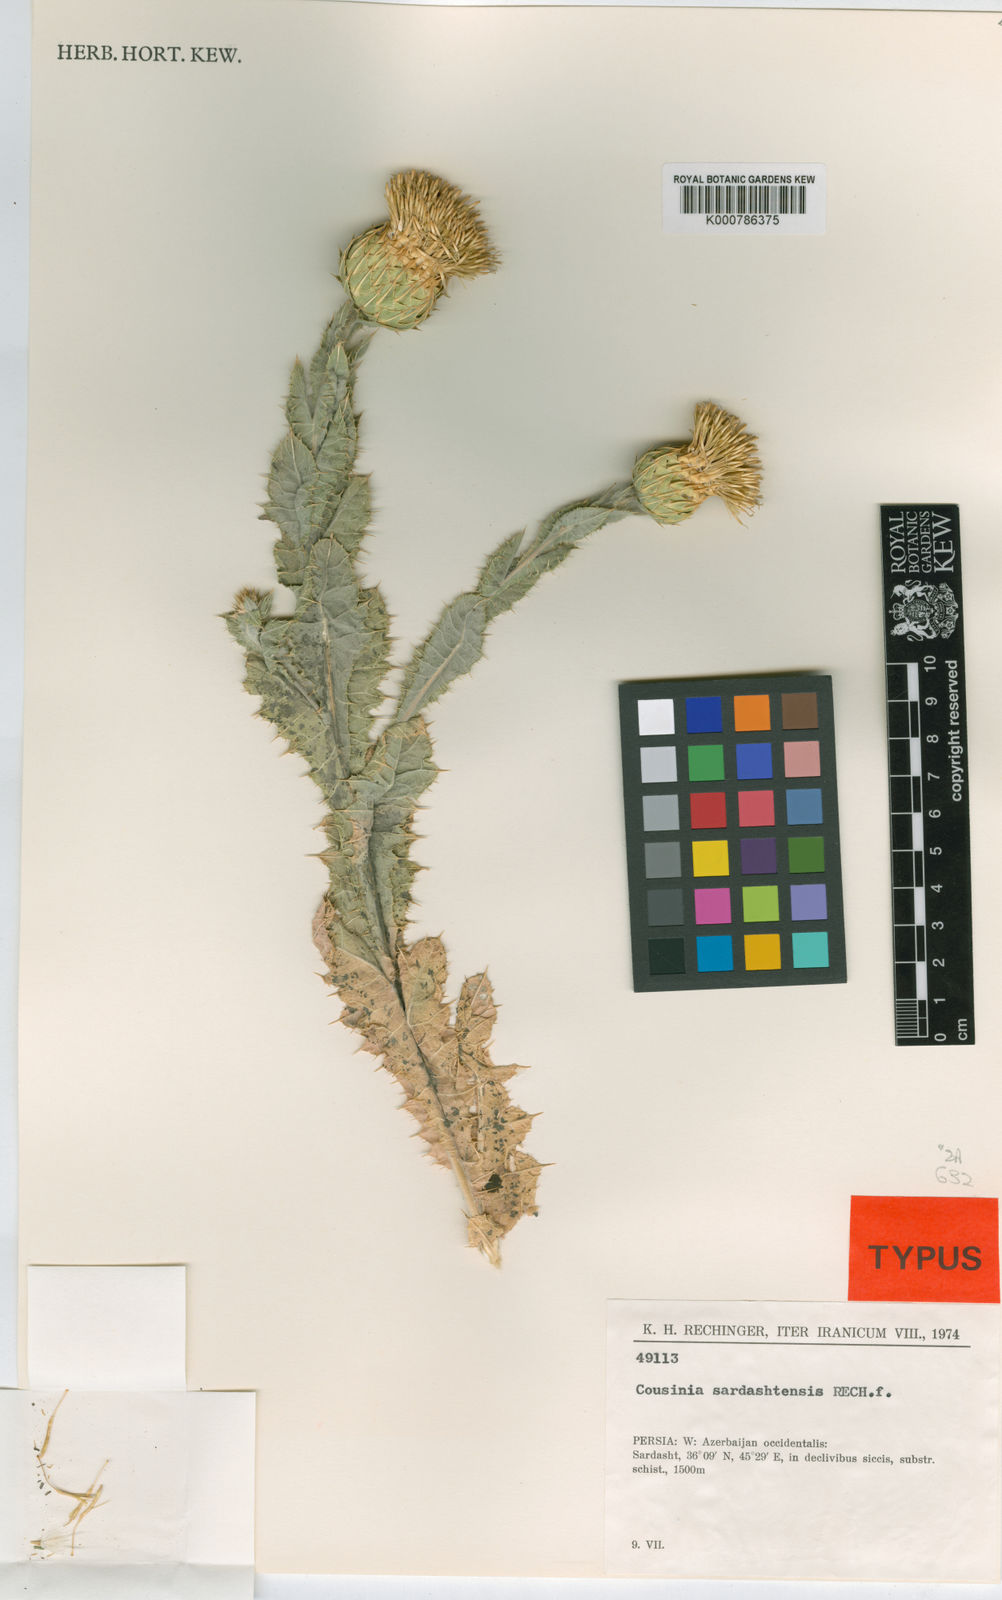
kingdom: Plantae
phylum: Tracheophyta
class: Magnoliopsida
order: Asterales
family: Asteraceae
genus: Cousinia
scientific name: Cousinia pergamacea
